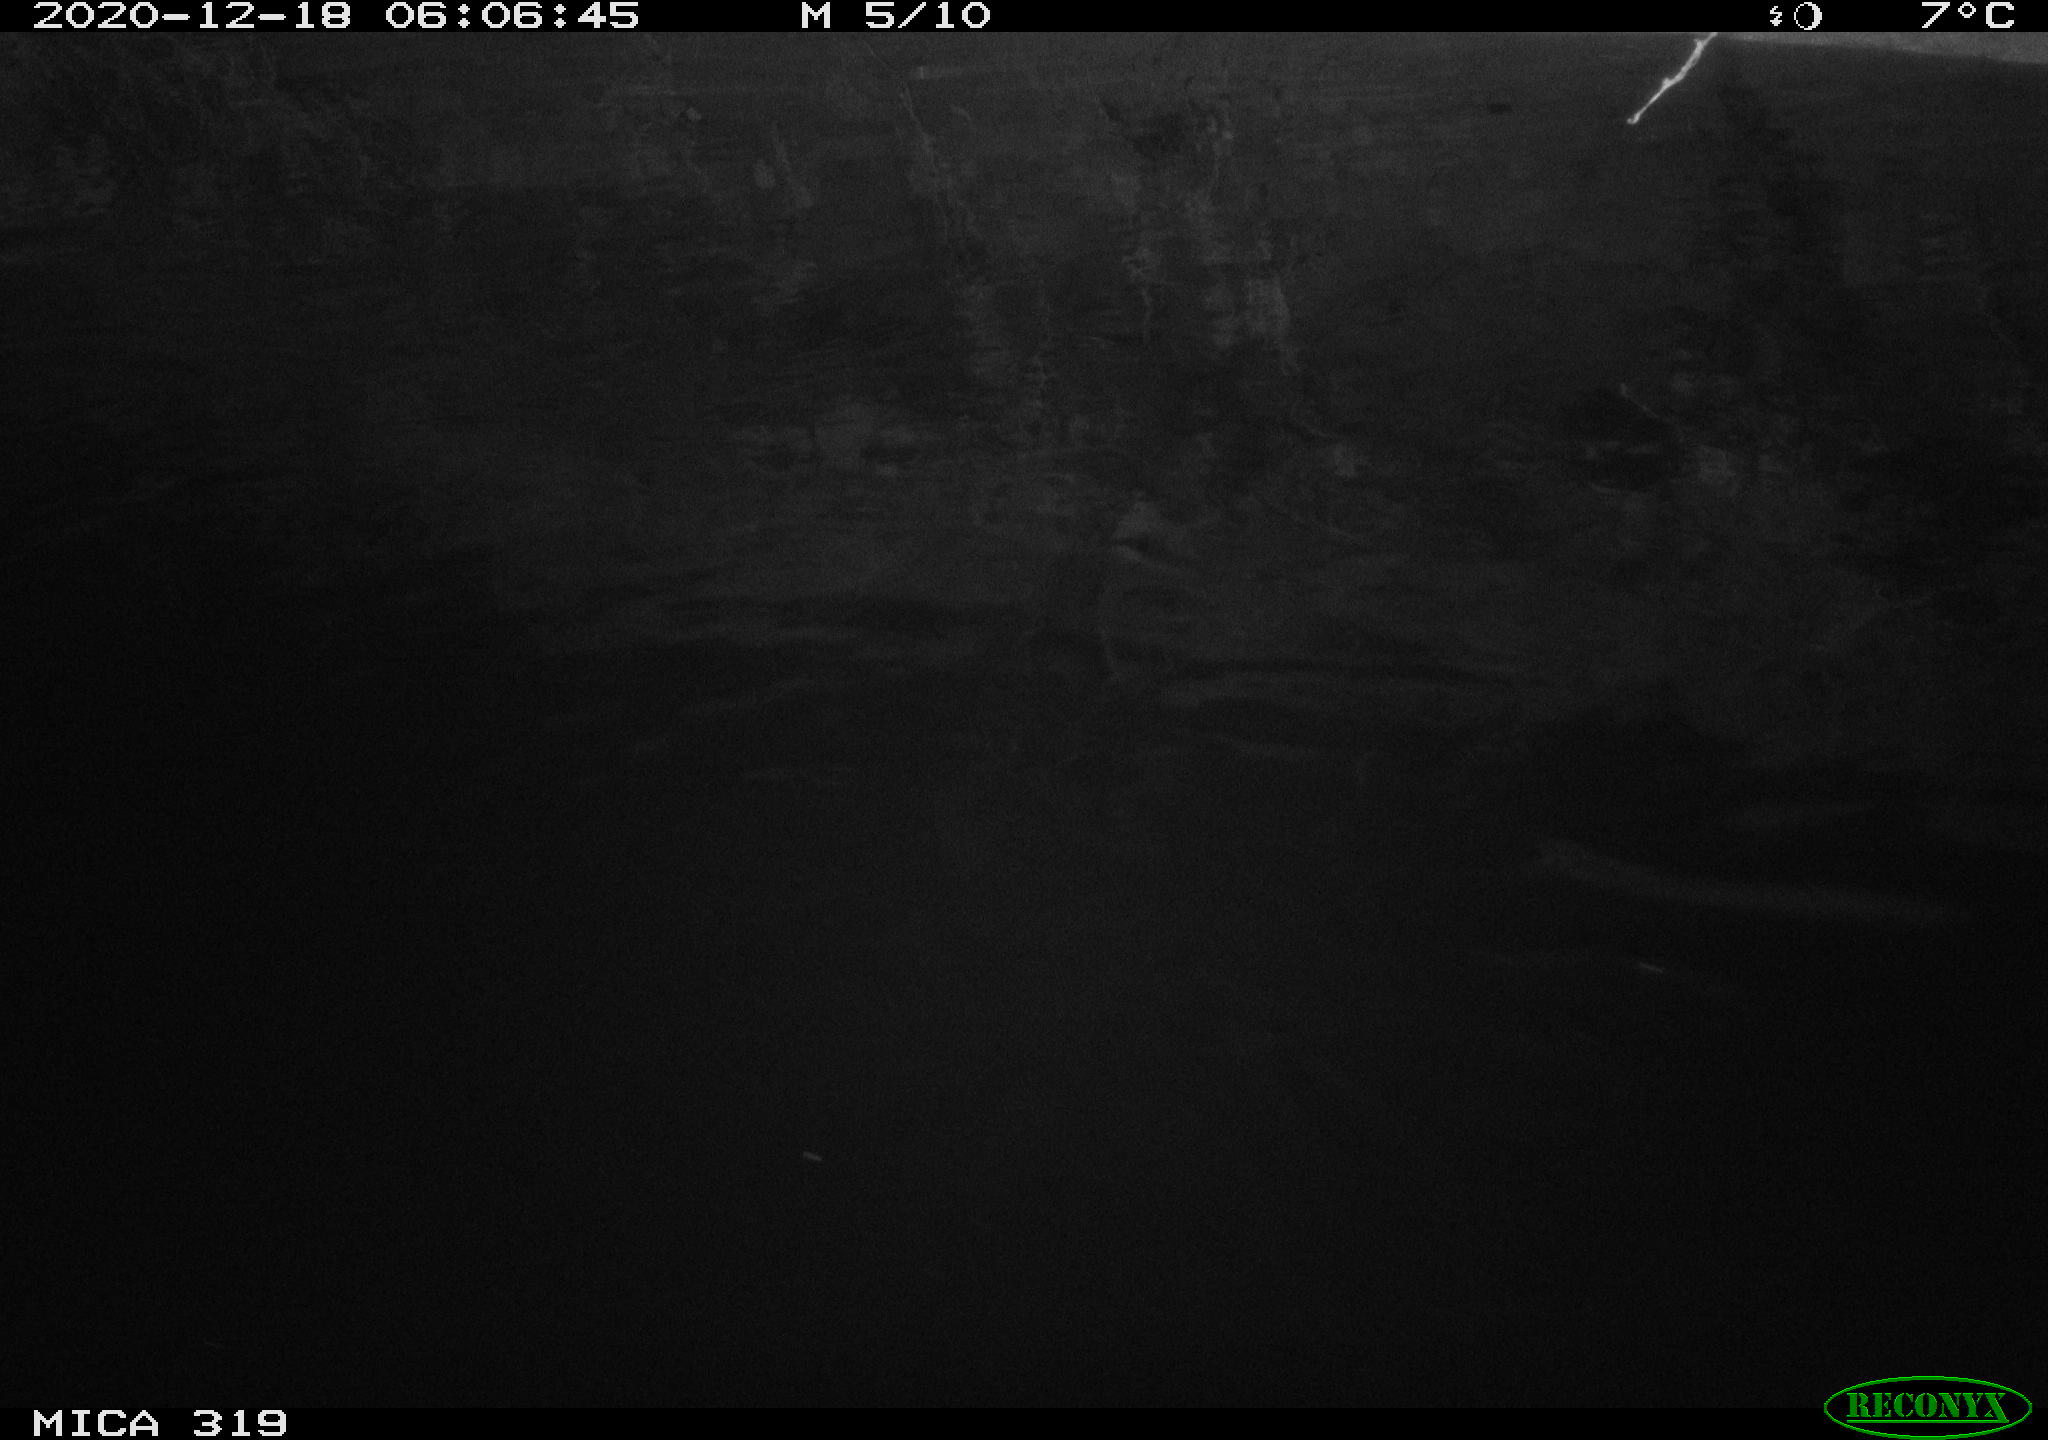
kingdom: Animalia
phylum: Chordata
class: Mammalia
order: Rodentia
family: Muridae
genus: Rattus
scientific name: Rattus norvegicus
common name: Brown rat
